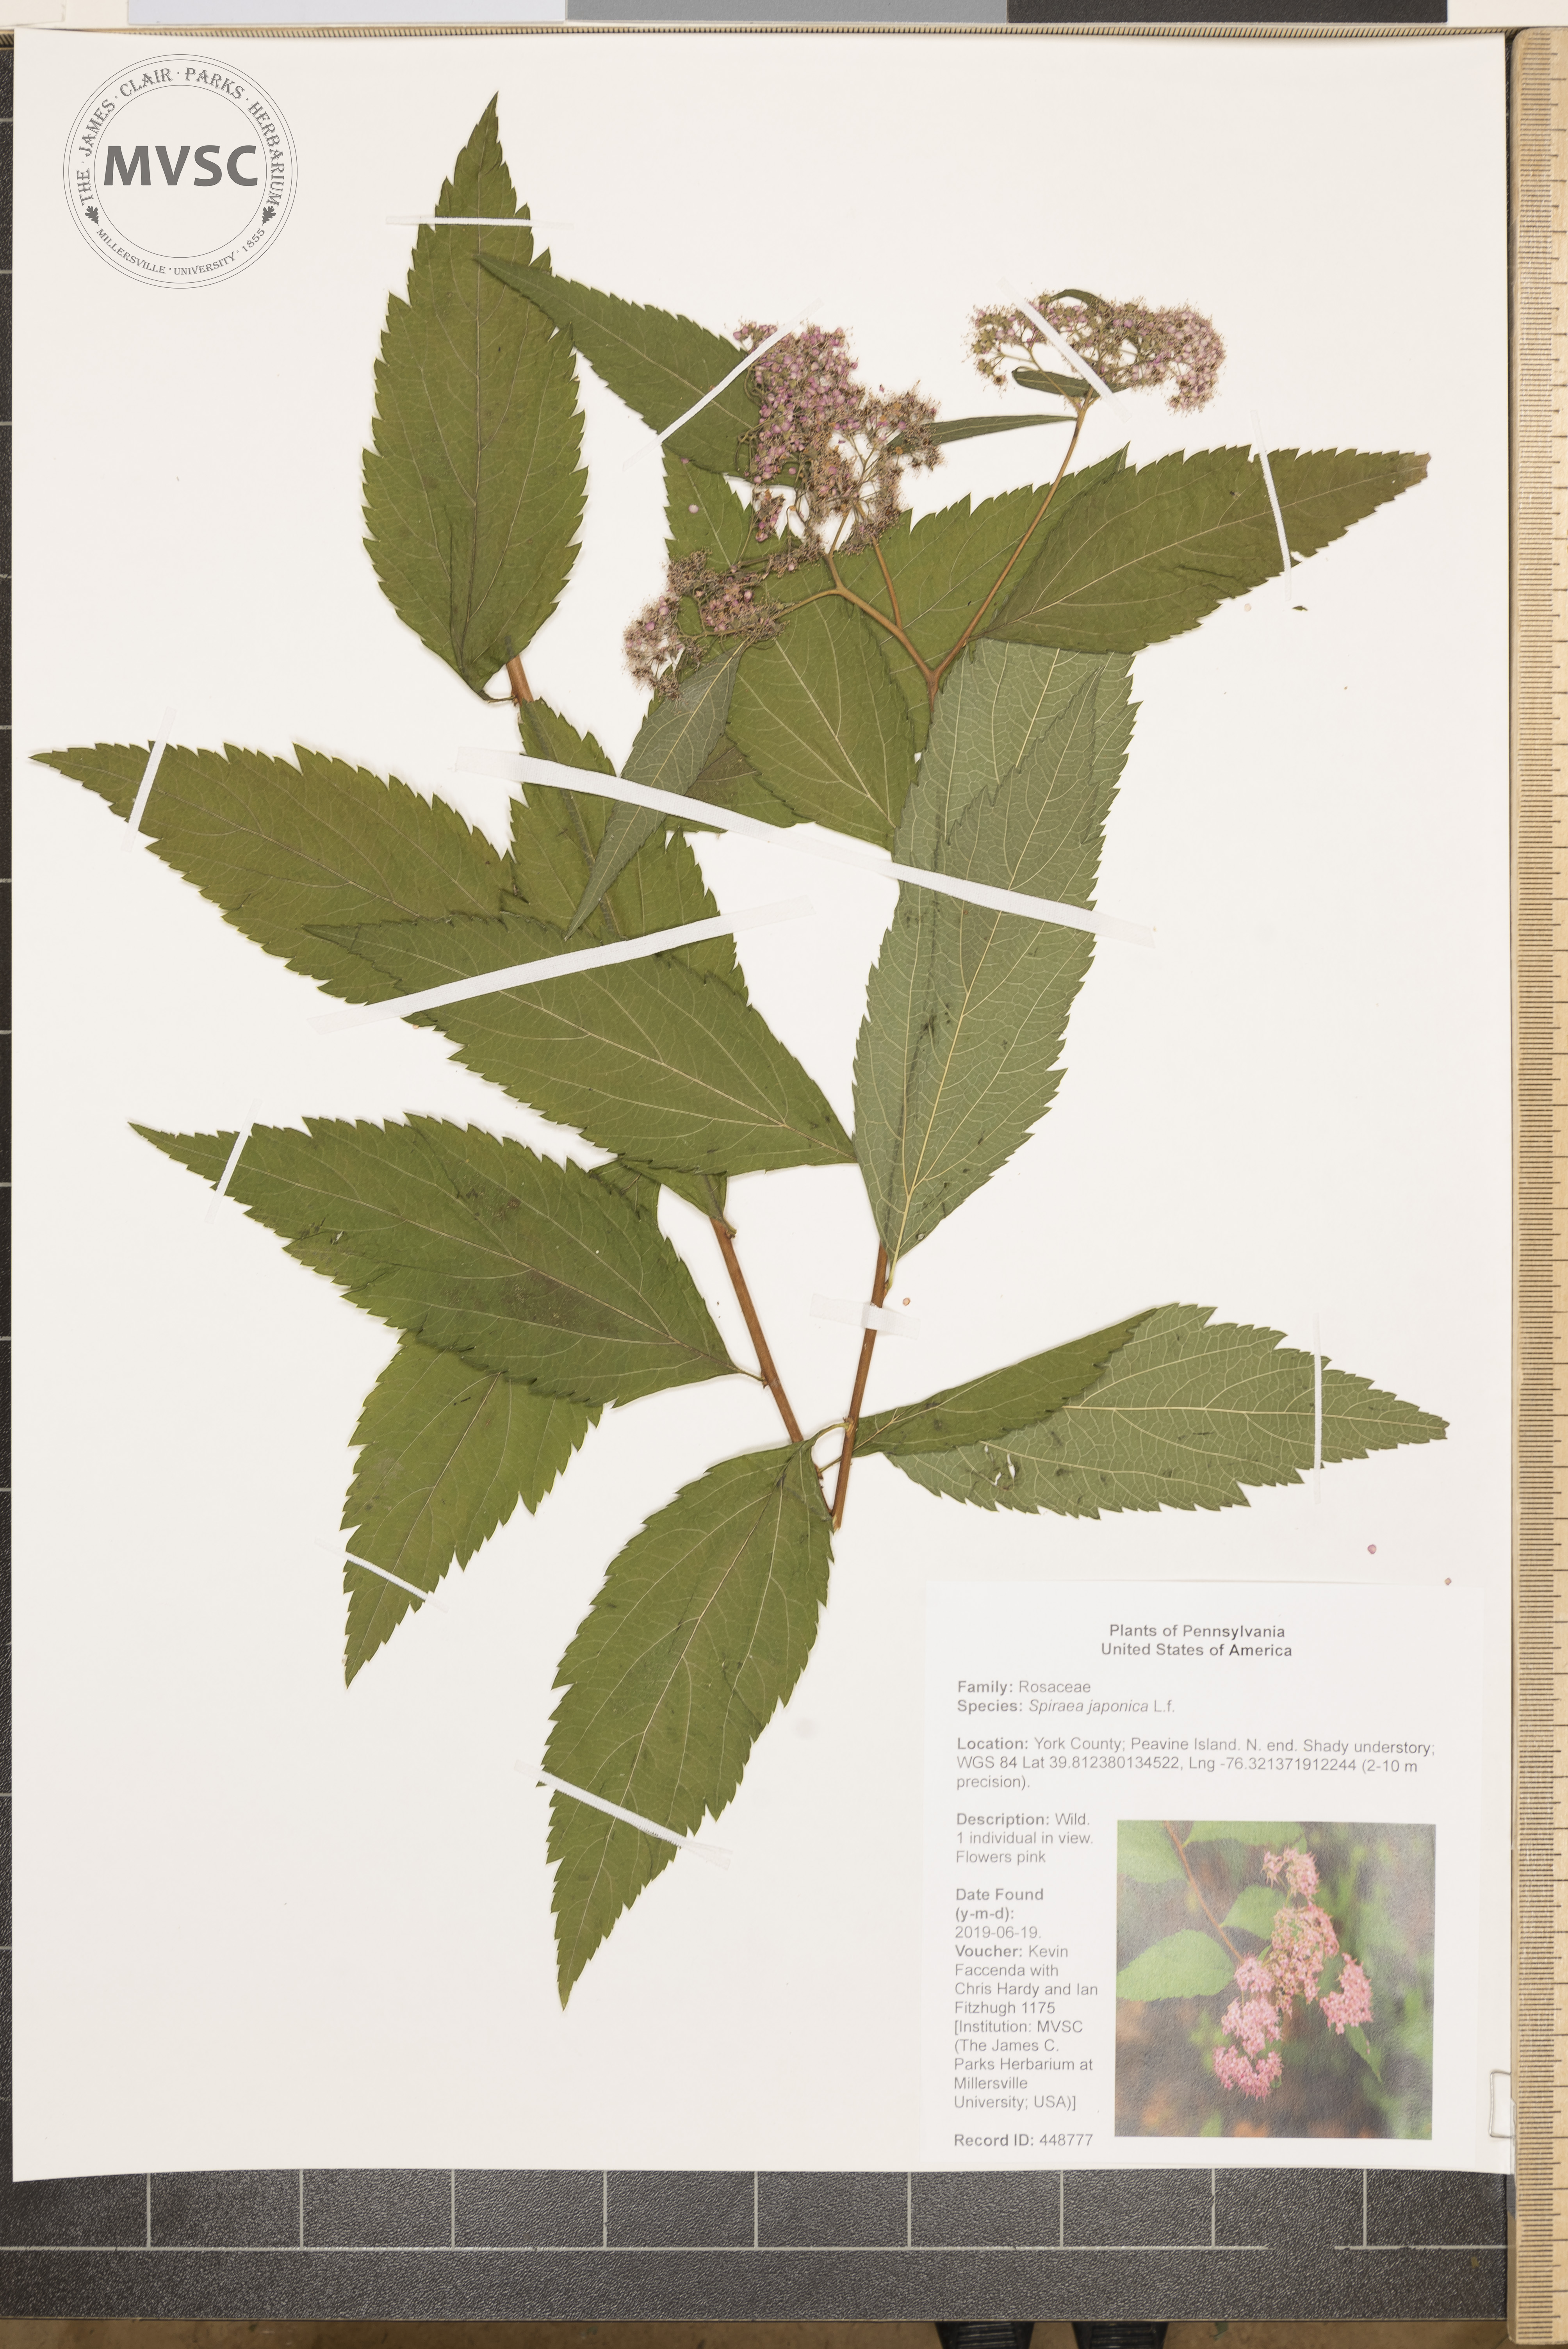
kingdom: Plantae
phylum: Tracheophyta
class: Magnoliopsida
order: Rosales
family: Rosaceae
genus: Spiraea
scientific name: Spiraea japonica
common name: Japanese spiraea
